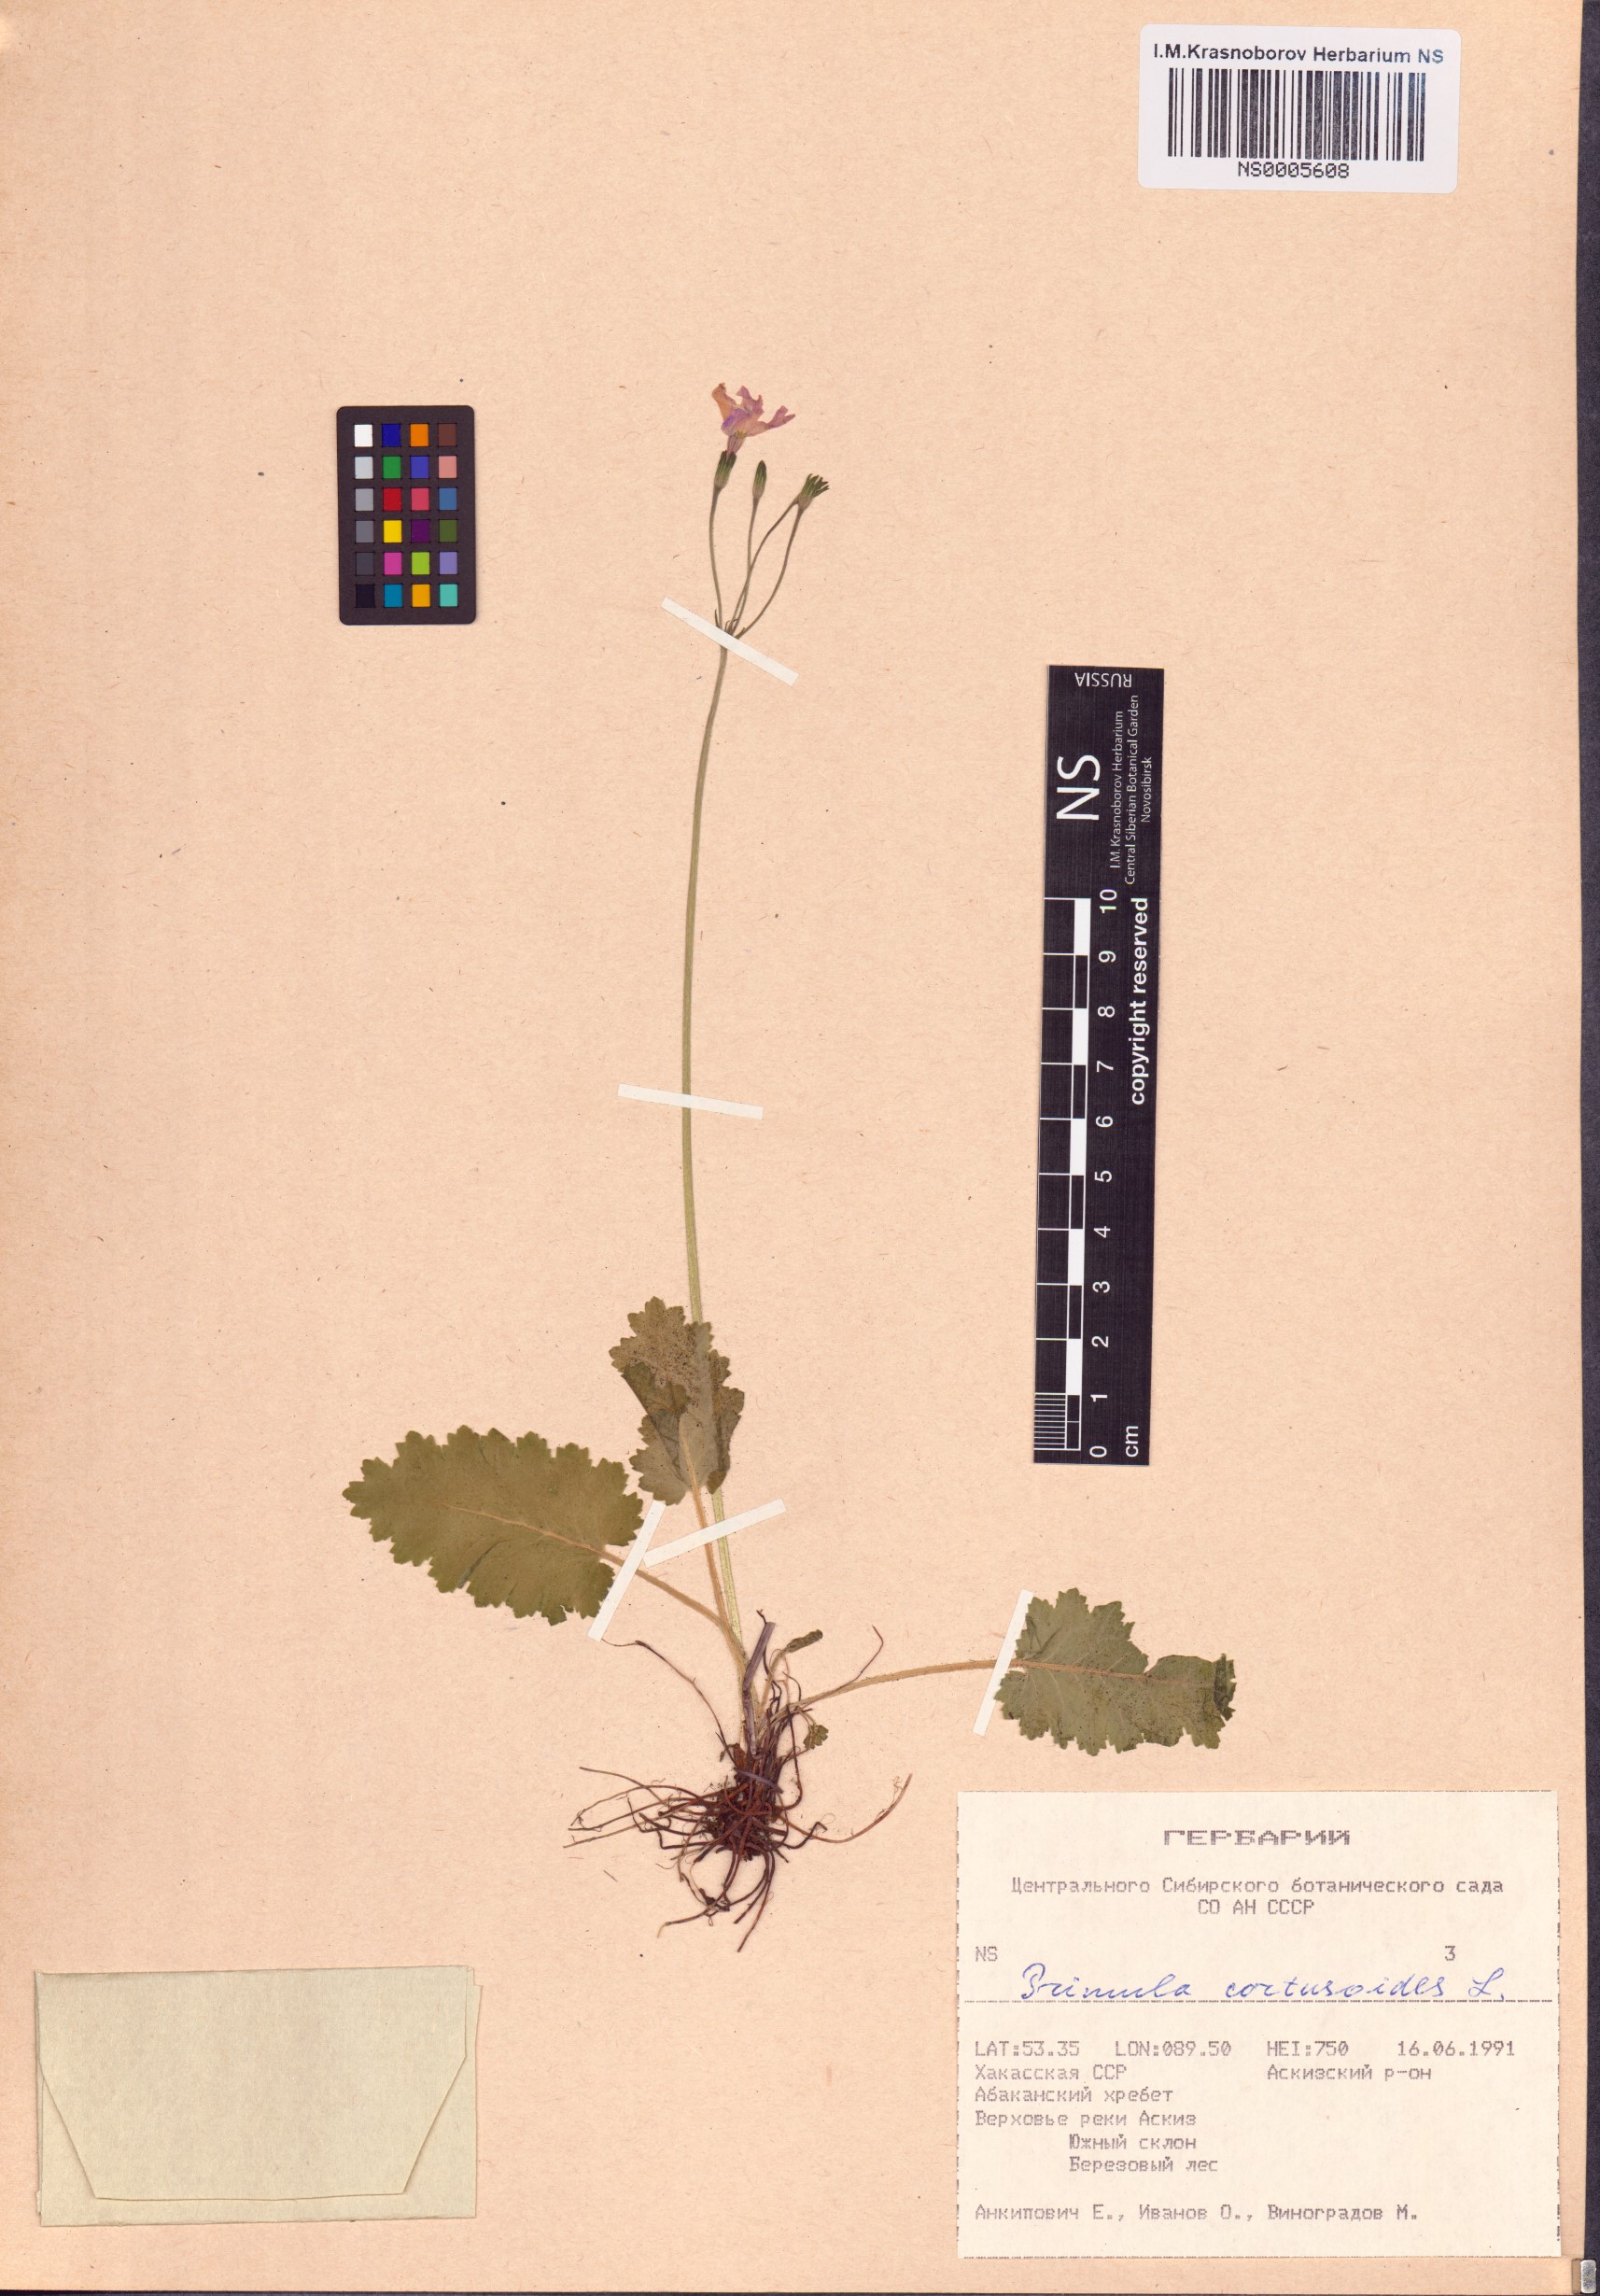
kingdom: Plantae
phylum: Tracheophyta
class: Magnoliopsida
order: Ericales
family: Primulaceae
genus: Primula
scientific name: Primula cortusoides
